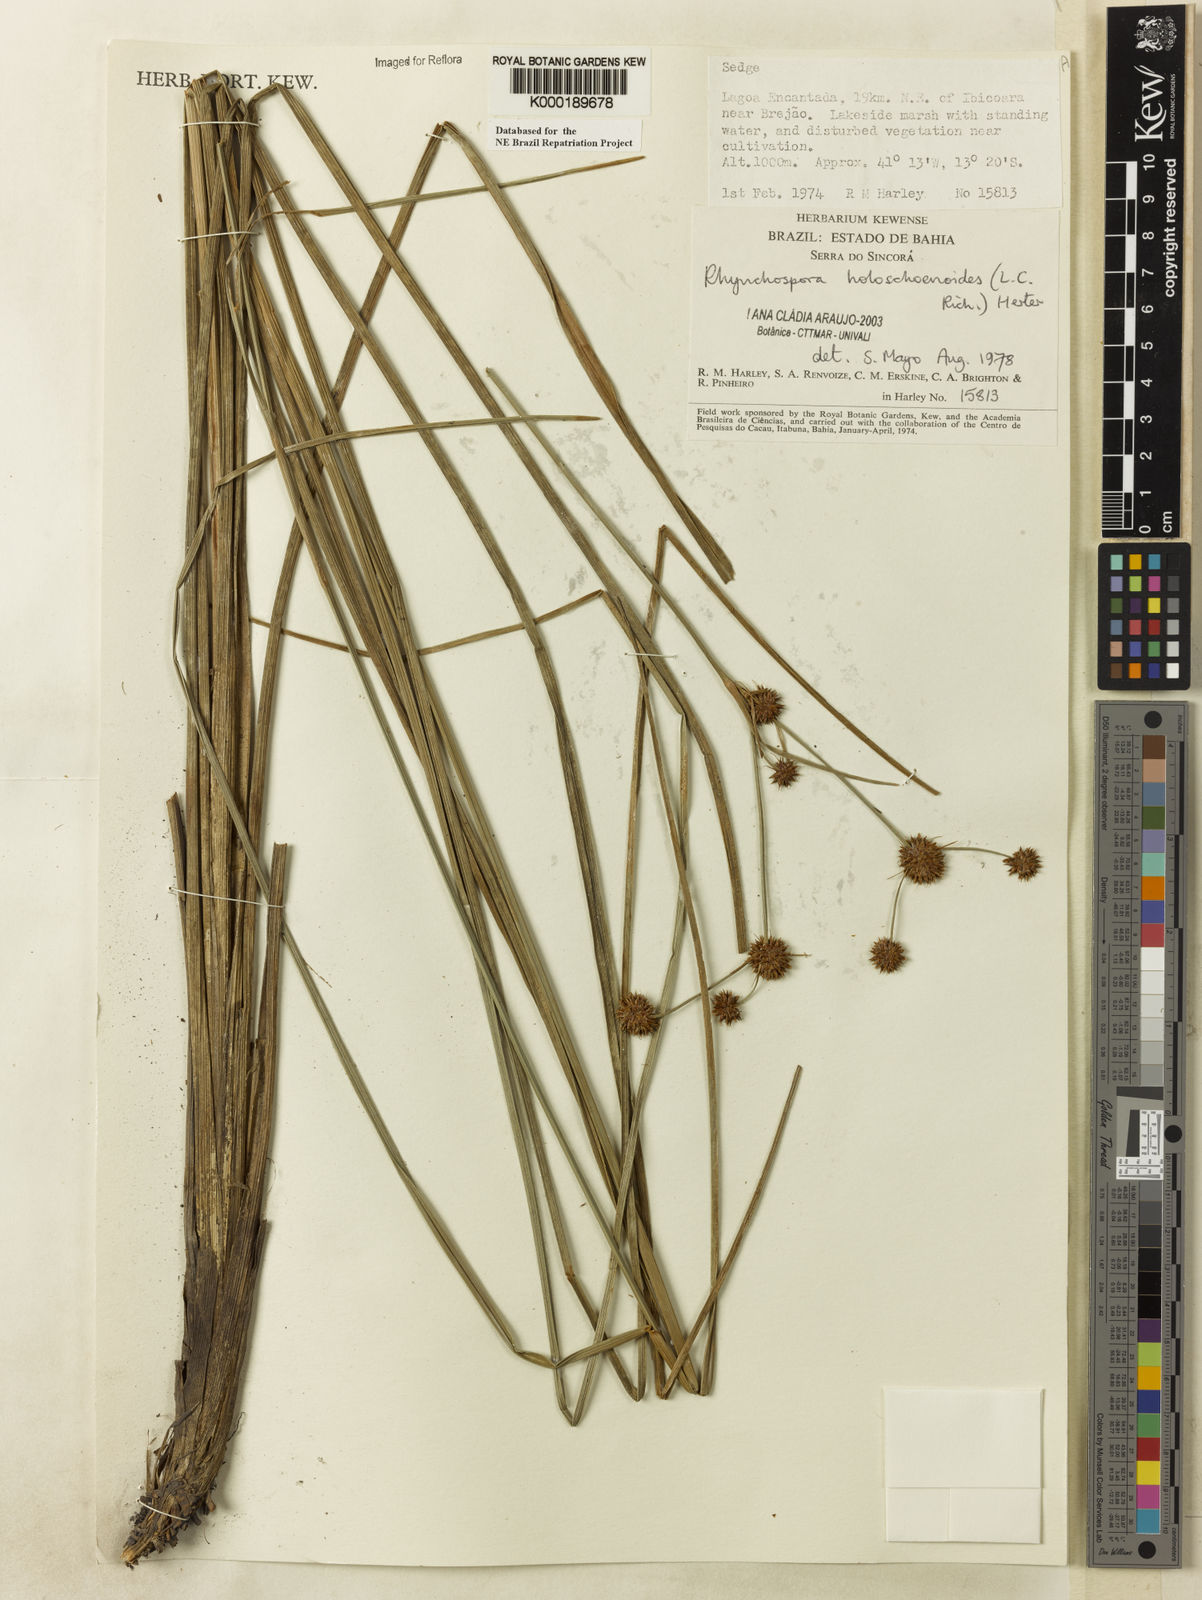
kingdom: Plantae
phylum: Tracheophyta
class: Liliopsida
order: Poales
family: Cyperaceae
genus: Rhynchospora
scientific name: Rhynchospora holoschoenoides
